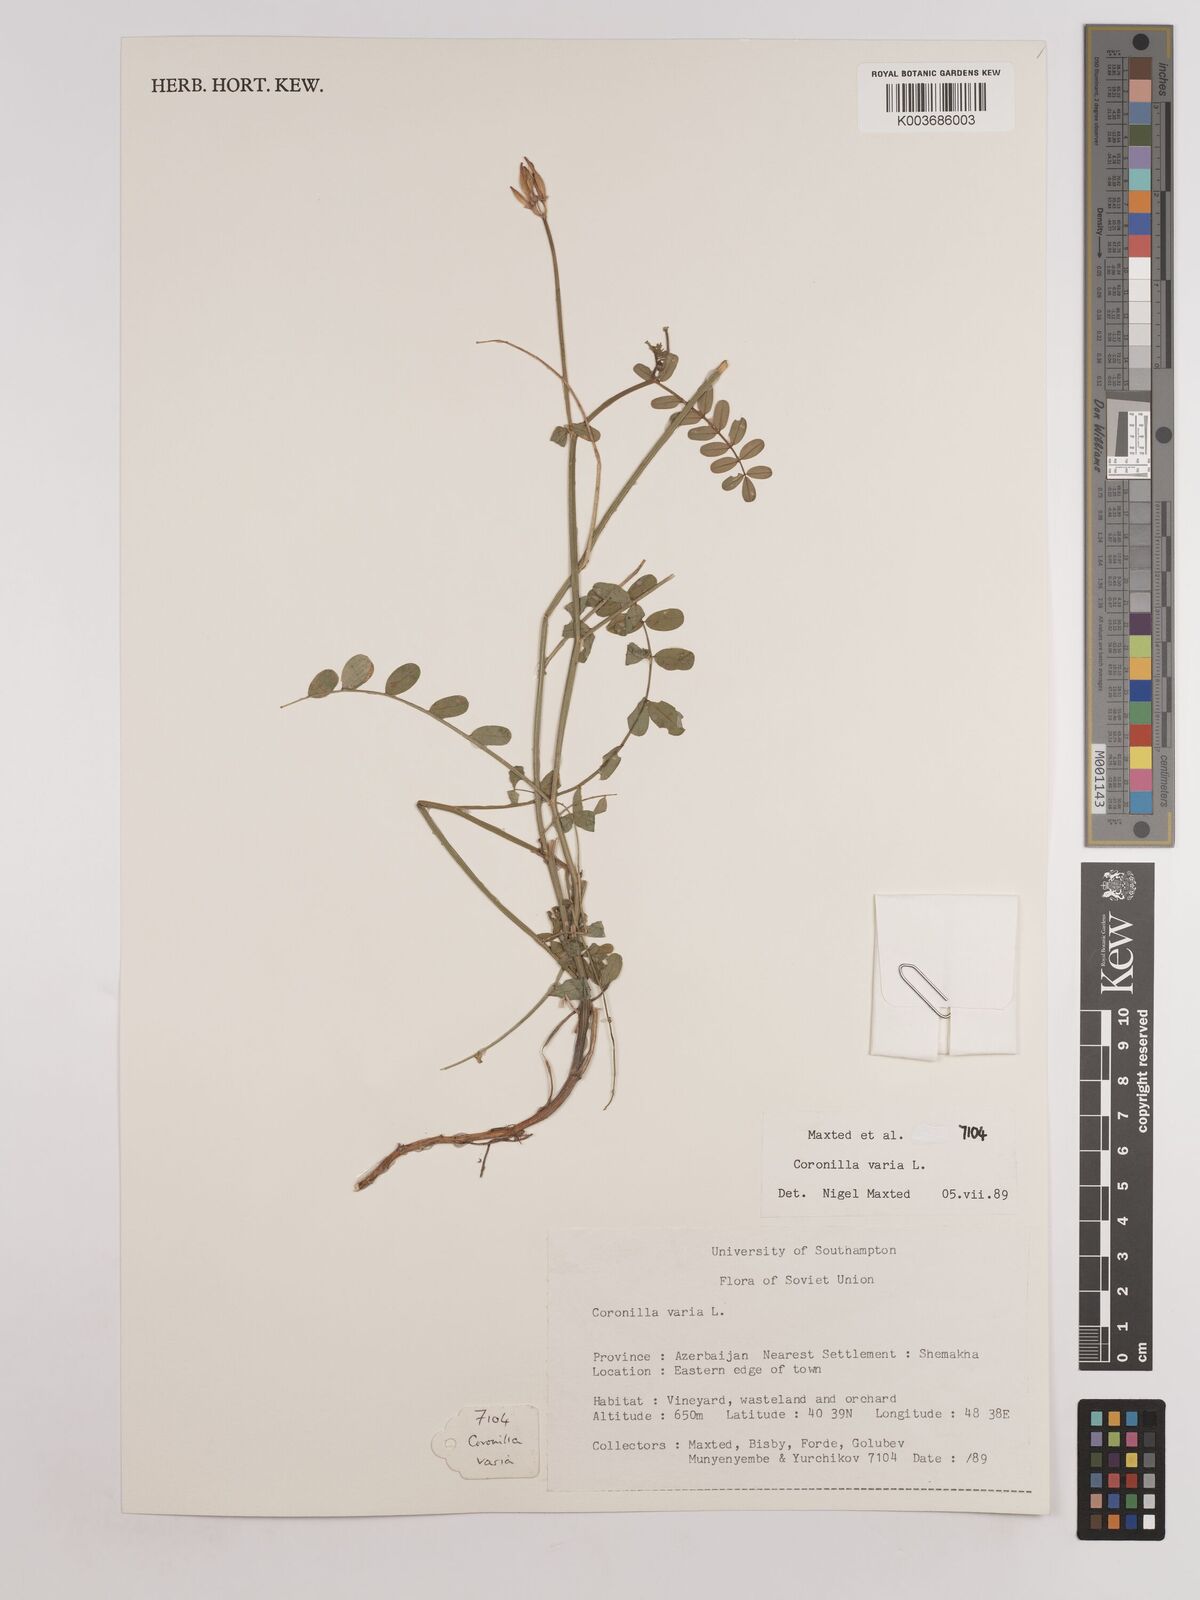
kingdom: Plantae
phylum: Tracheophyta
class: Magnoliopsida
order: Fabales
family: Fabaceae
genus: Coronilla
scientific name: Coronilla varia
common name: Crownvetch
